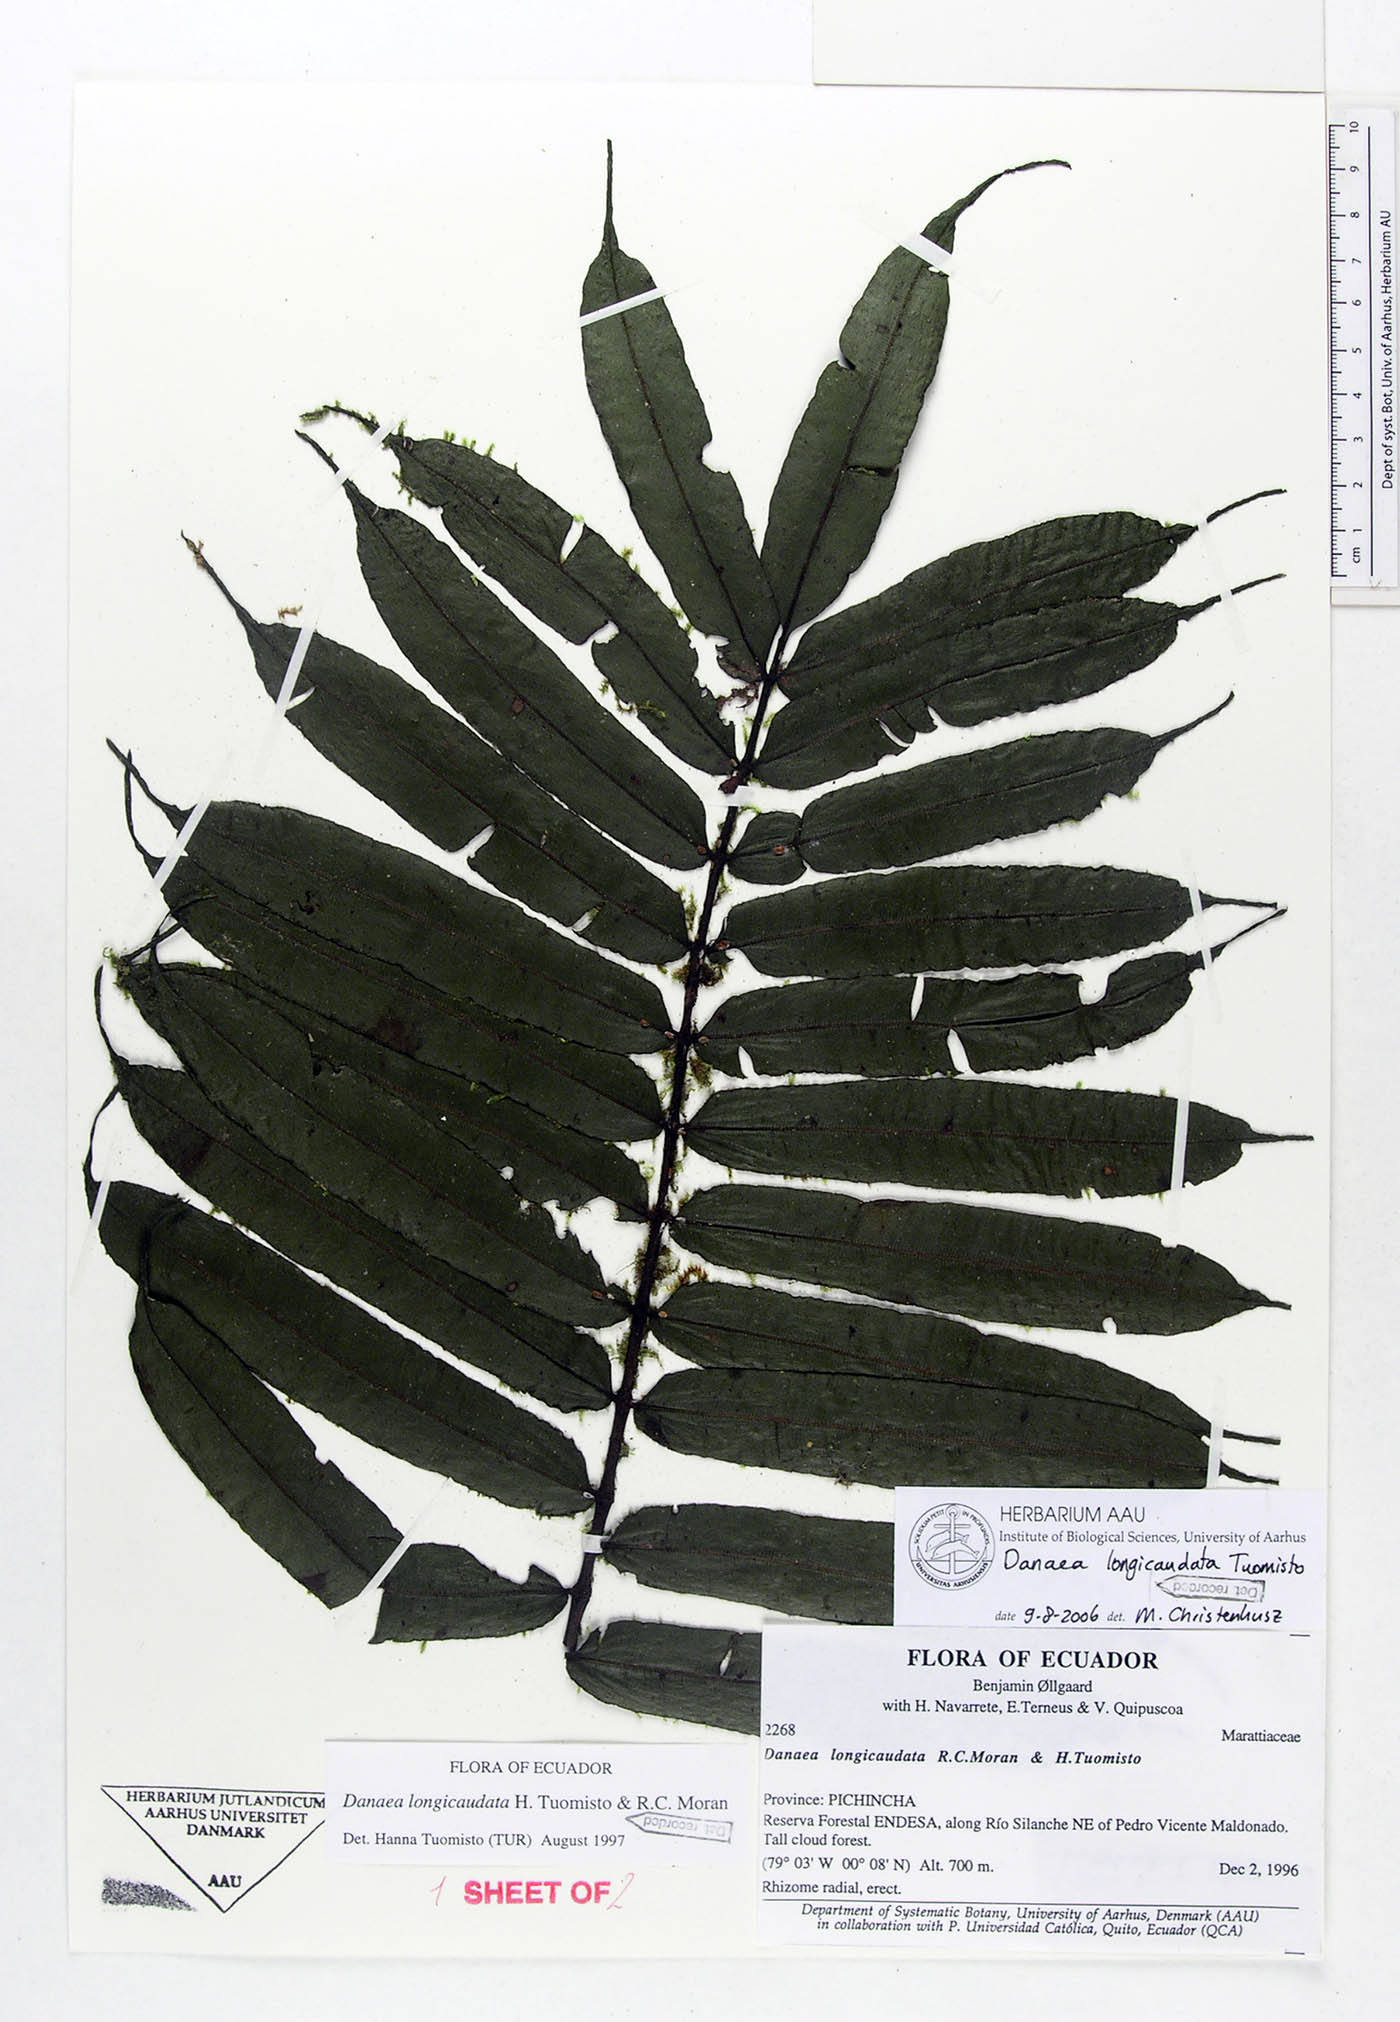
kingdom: Plantae
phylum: Tracheophyta
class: Polypodiopsida
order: Marattiales
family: Marattiaceae
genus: Danaea
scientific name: Danaea longicaudata
